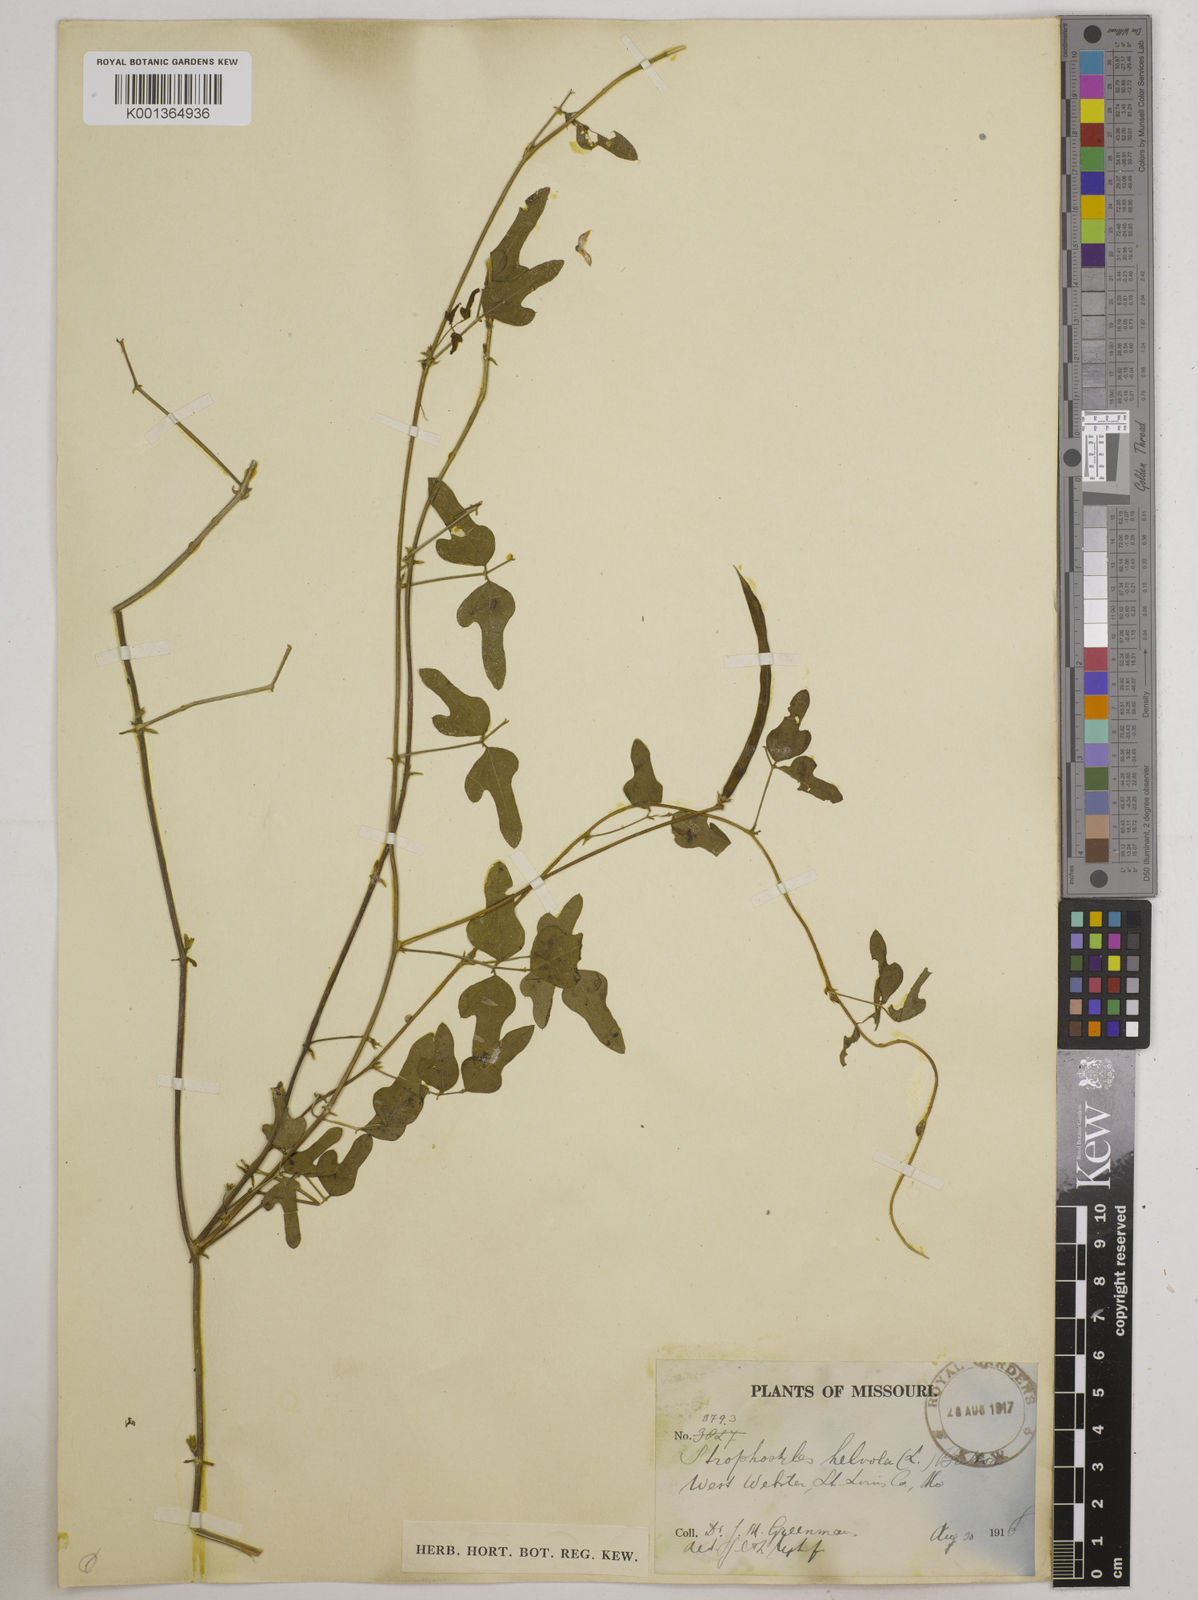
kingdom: Plantae
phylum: Tracheophyta
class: Magnoliopsida
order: Fabales
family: Fabaceae
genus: Strophostyles
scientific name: Strophostyles
